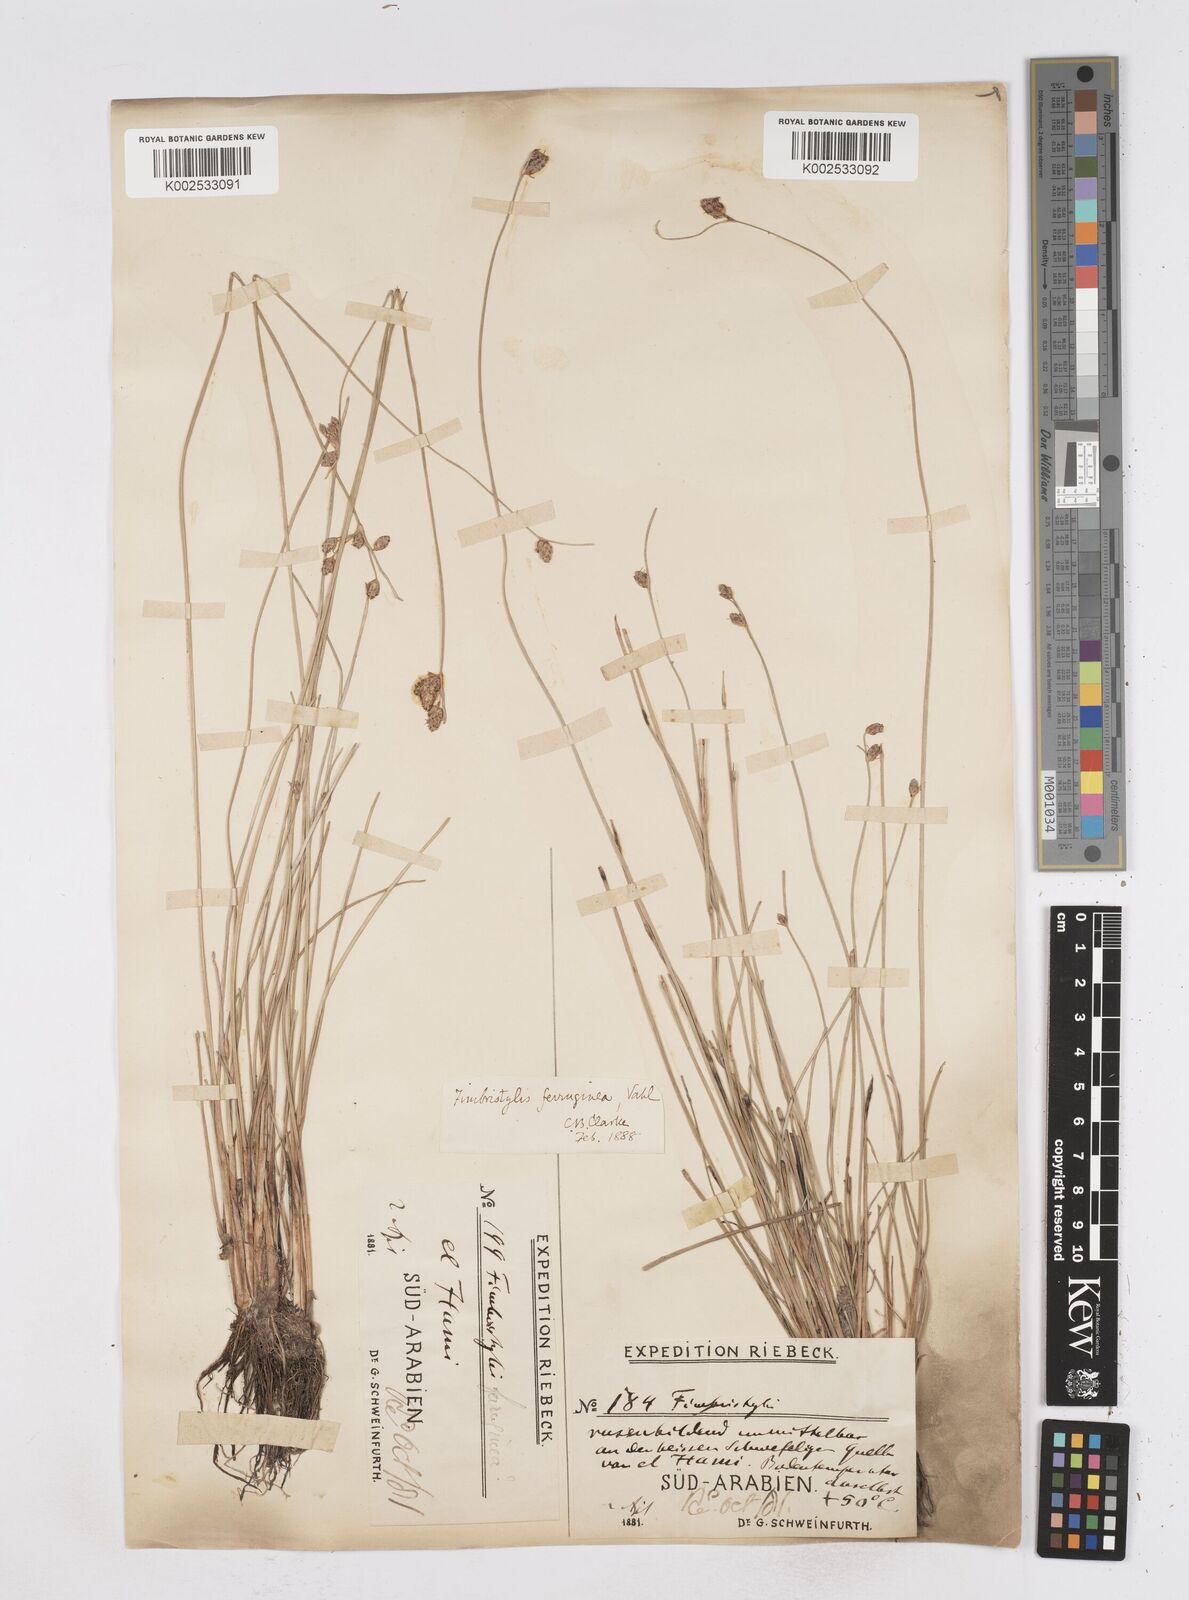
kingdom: Plantae
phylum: Tracheophyta
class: Liliopsida
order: Poales
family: Cyperaceae
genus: Fimbristylis
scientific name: Fimbristylis ferruginea
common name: West indian fimbry
